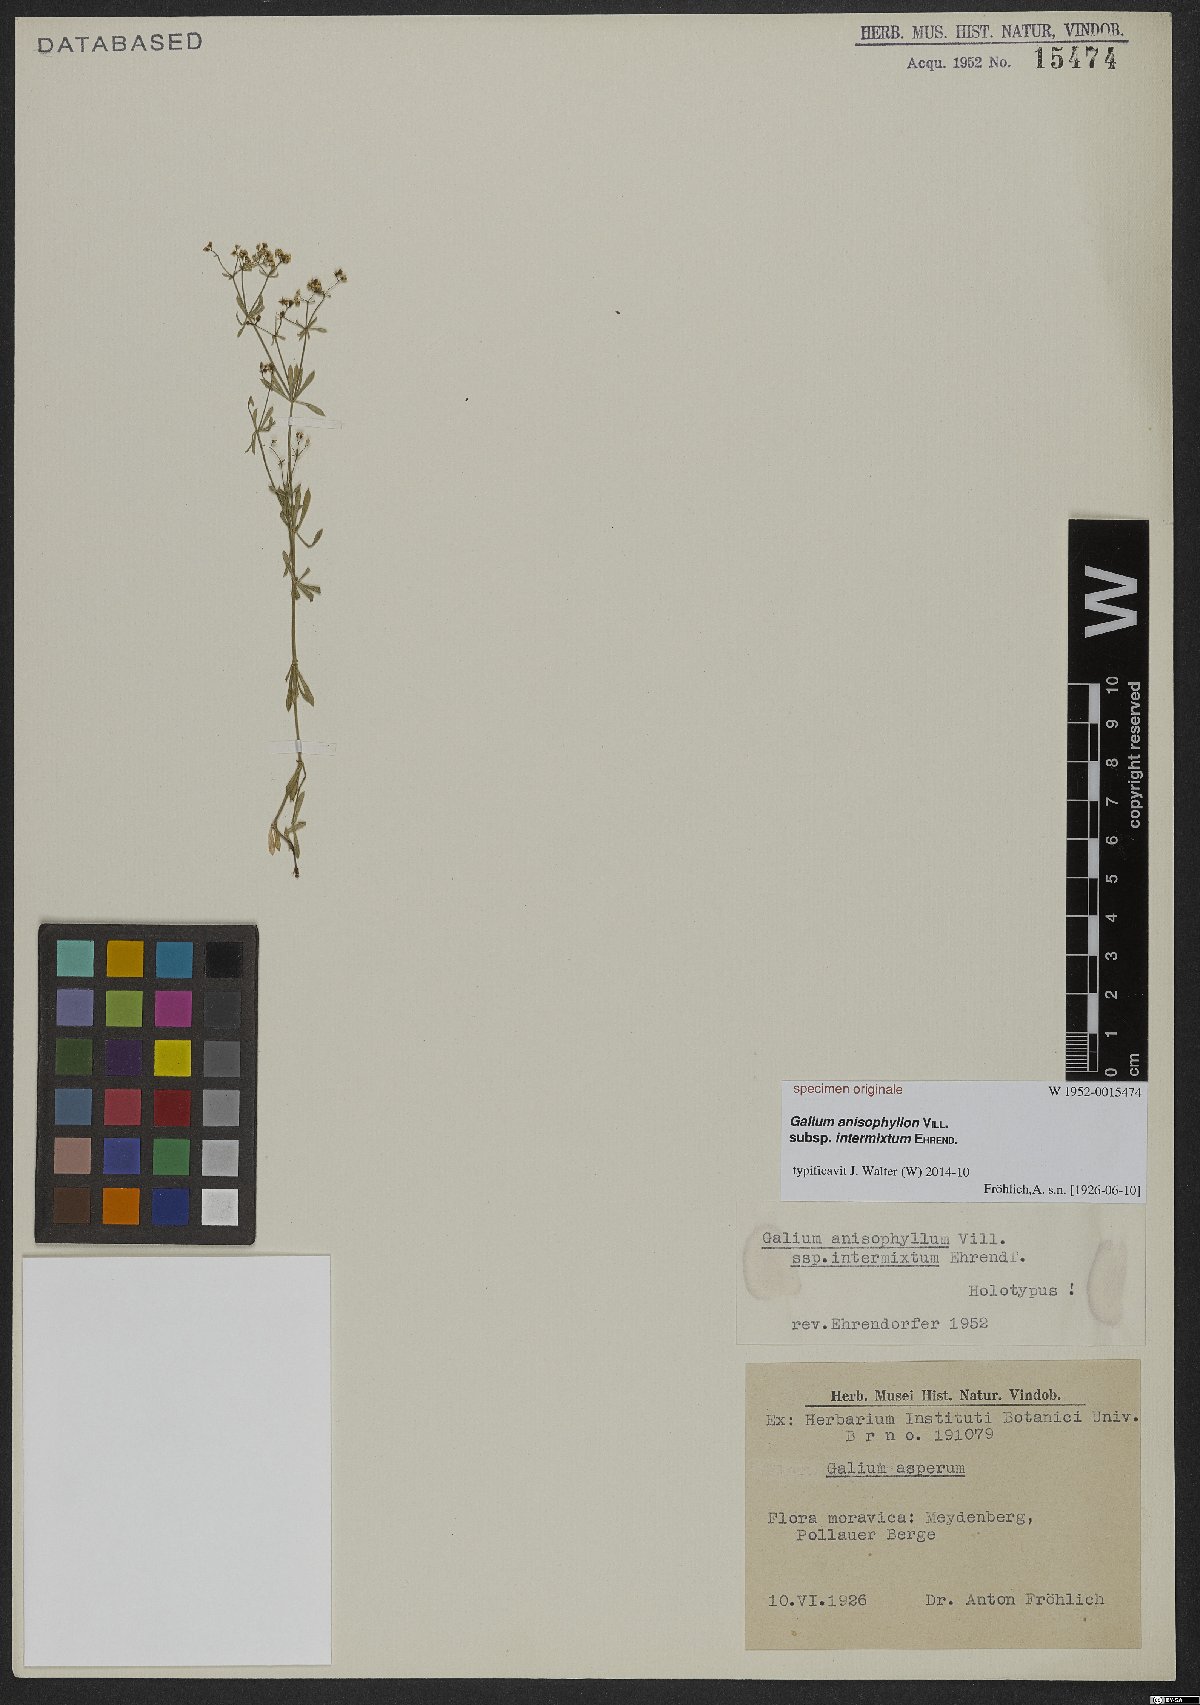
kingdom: Plantae
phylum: Tracheophyta
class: Magnoliopsida
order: Gentianales
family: Rubiaceae
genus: Galium
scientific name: Galium anisophyllon
